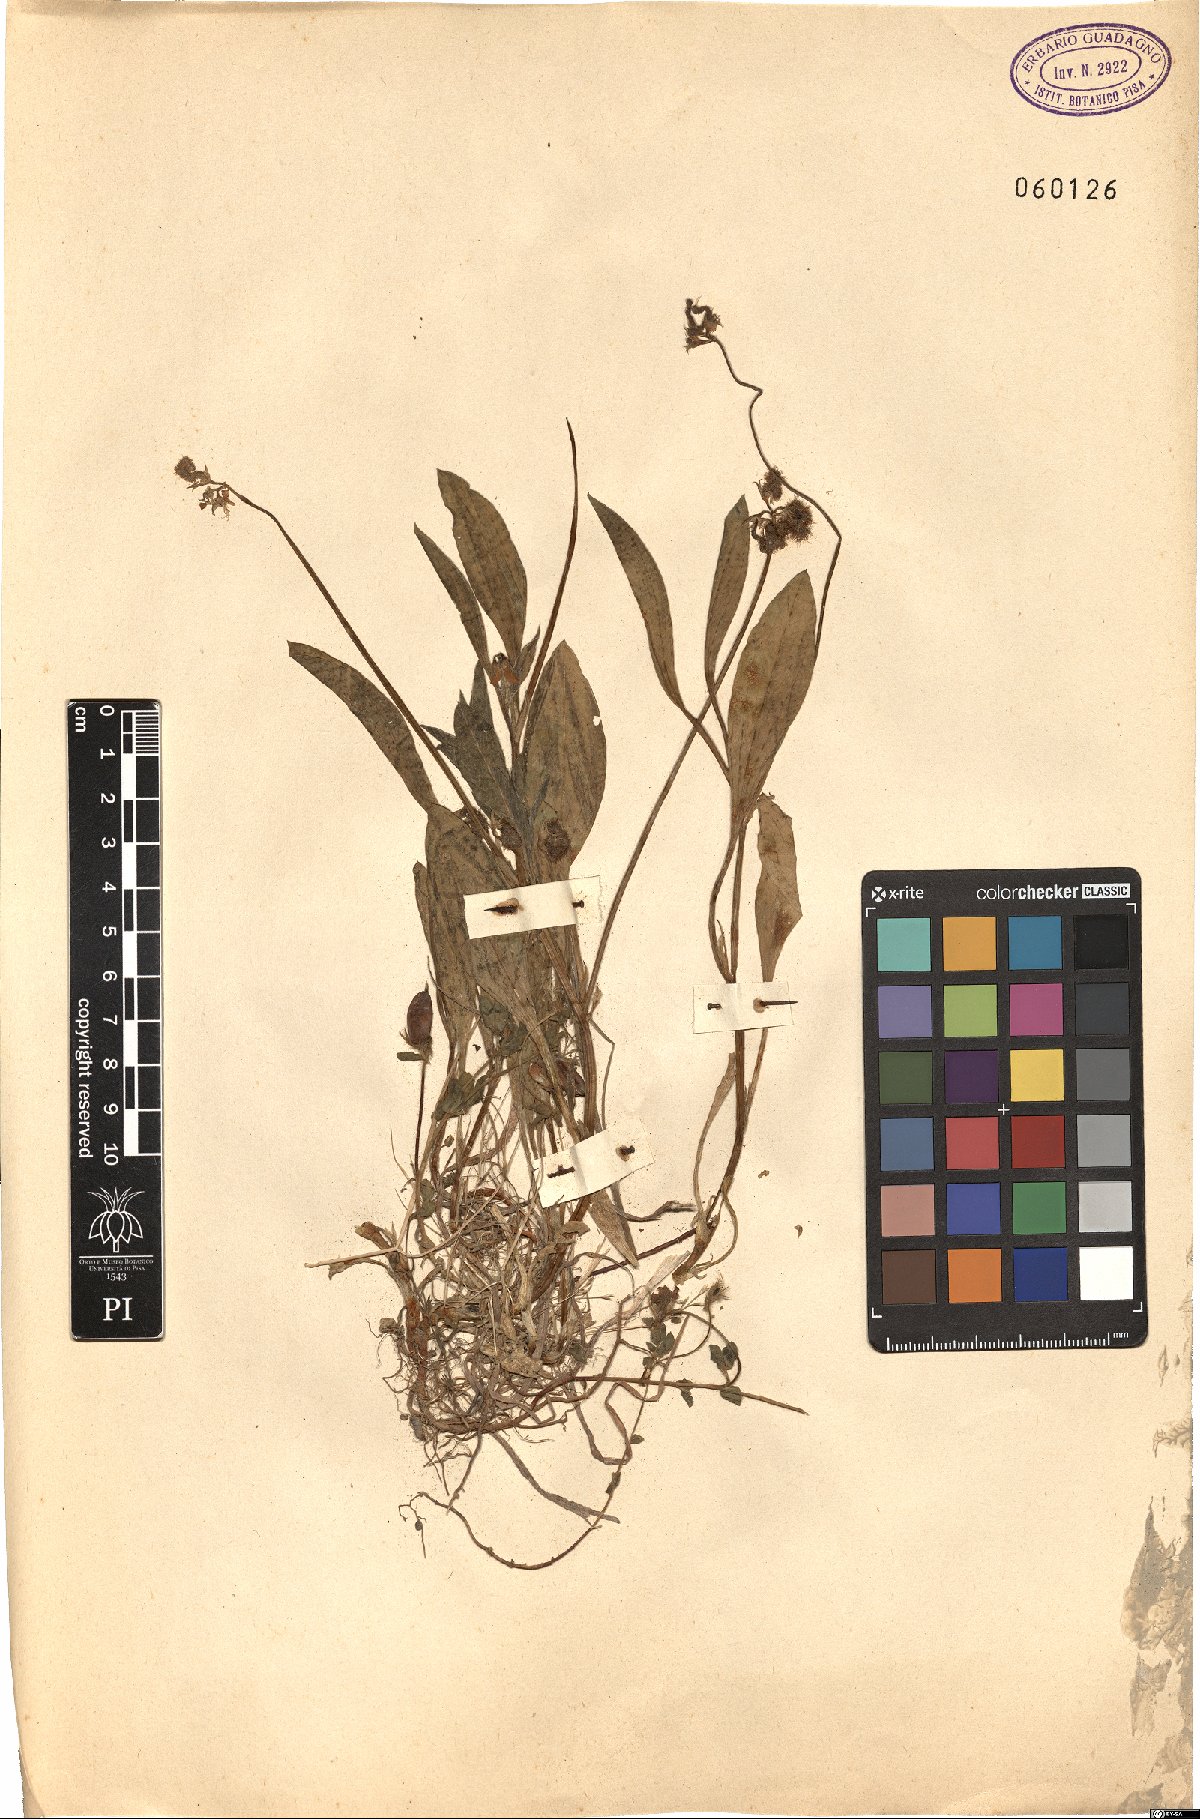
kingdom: Plantae
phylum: Tracheophyta
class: Magnoliopsida
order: Fabales
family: Fabaceae
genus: Scorpiurus
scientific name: Scorpiurus muricatus
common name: Caterpillar-plant
